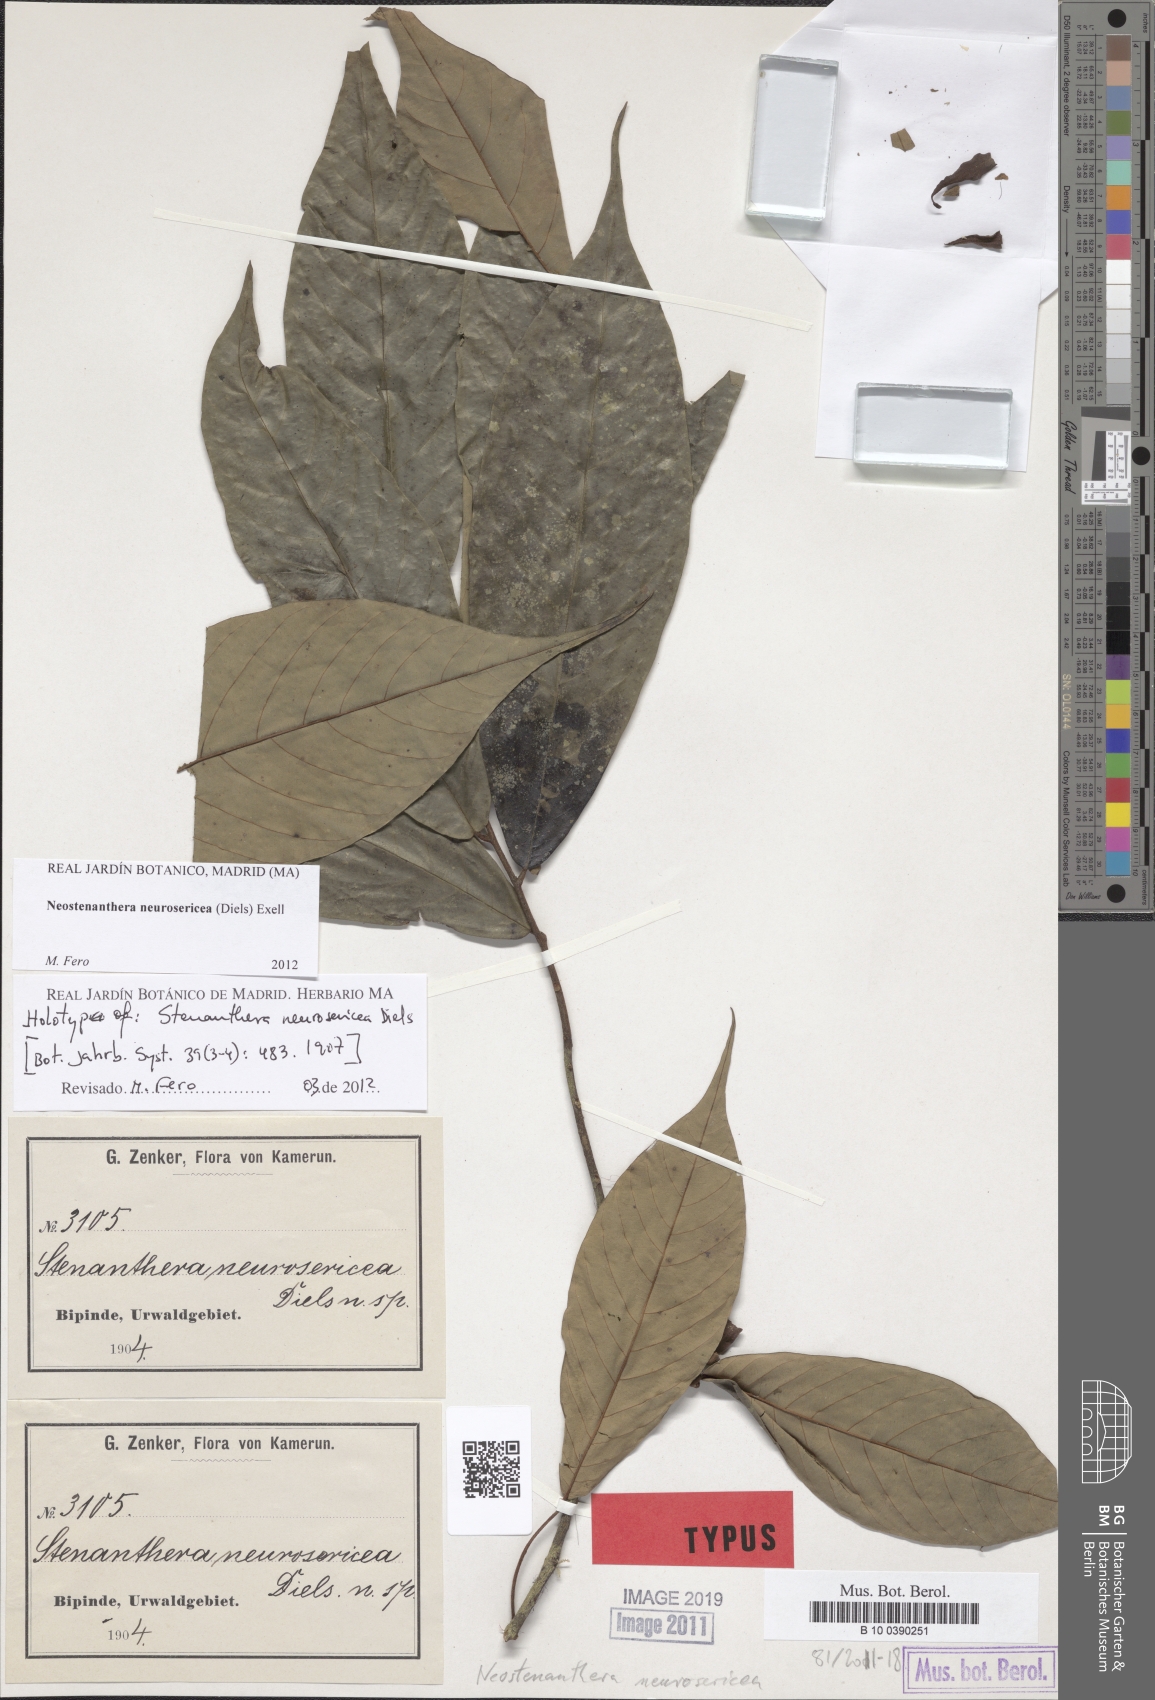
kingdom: Plantae
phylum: Tracheophyta
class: Magnoliopsida
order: Magnoliales
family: Annonaceae
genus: Neostenanthera
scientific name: Neostenanthera neurosericea
